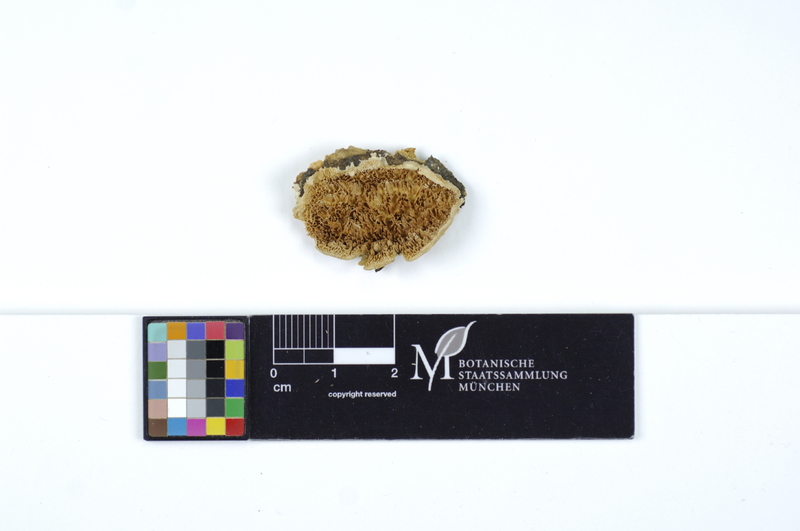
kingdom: Fungi
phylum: Basidiomycota
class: Agaricomycetes
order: Polyporales
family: Cerrenaceae
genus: Cerrena
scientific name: Cerrena zonata
